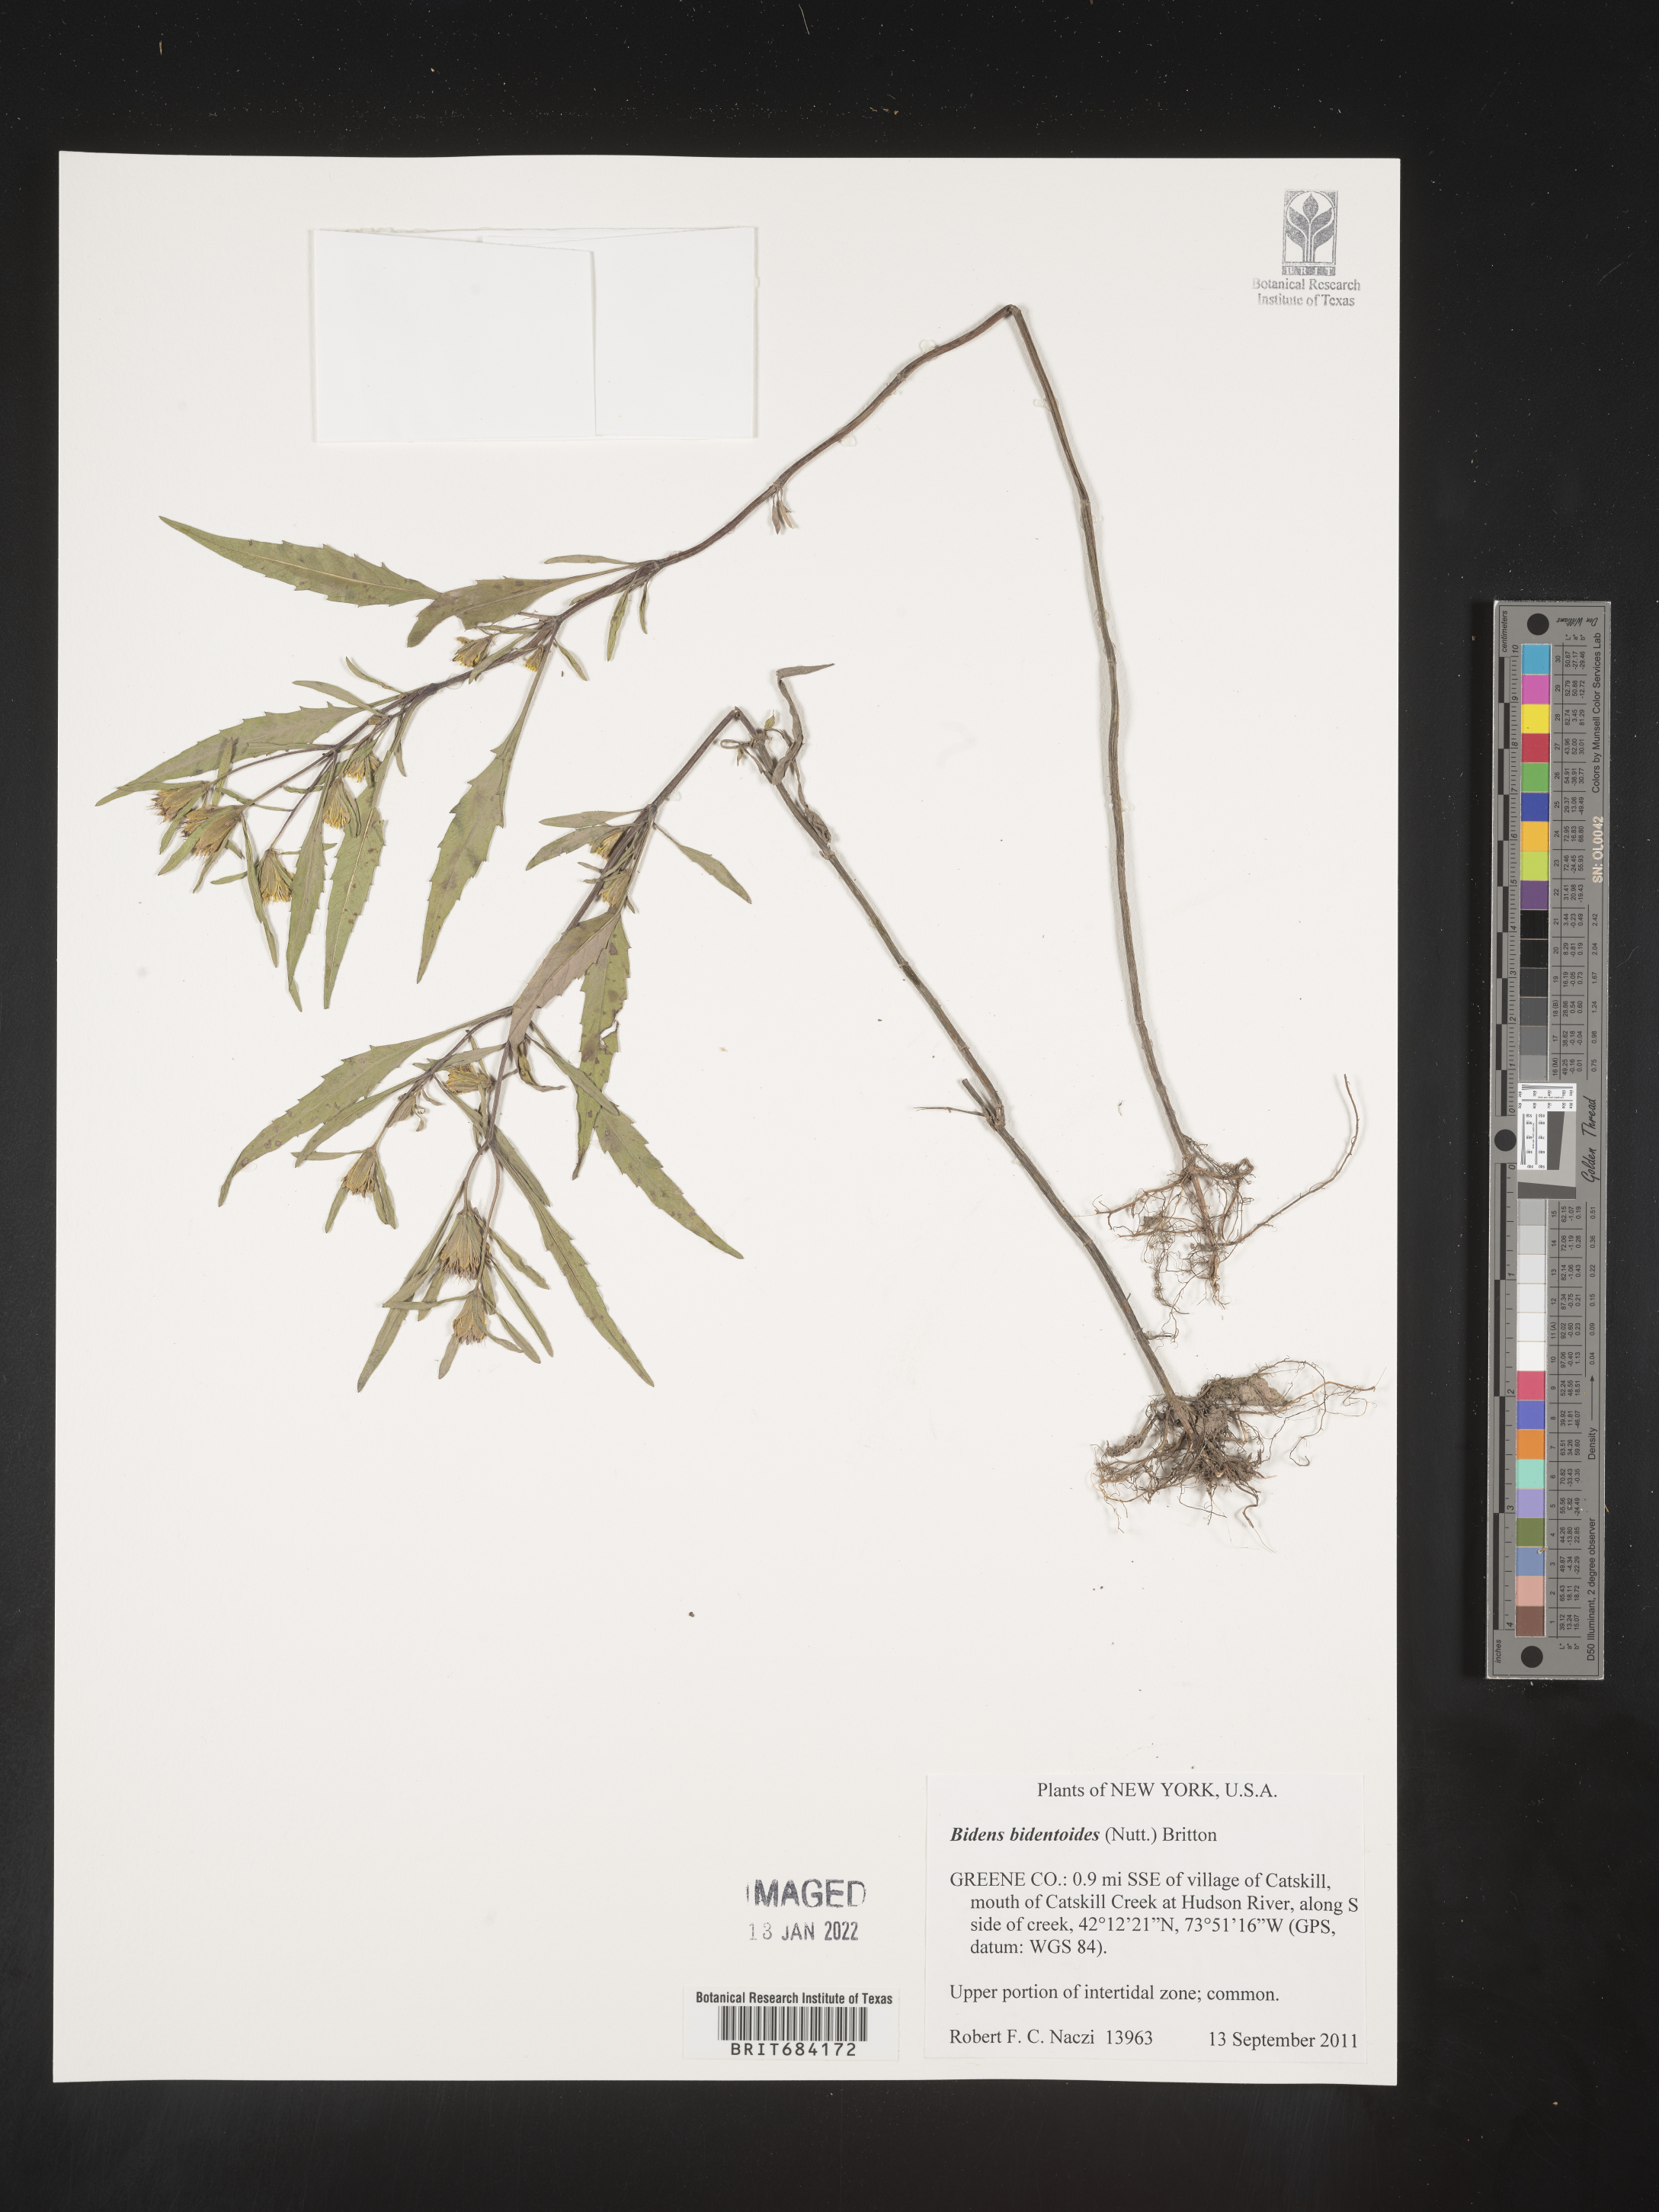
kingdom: Plantae
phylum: Tracheophyta
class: Magnoliopsida
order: Asterales
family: Asteraceae
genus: Bidens
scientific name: Bidens bidentoides
